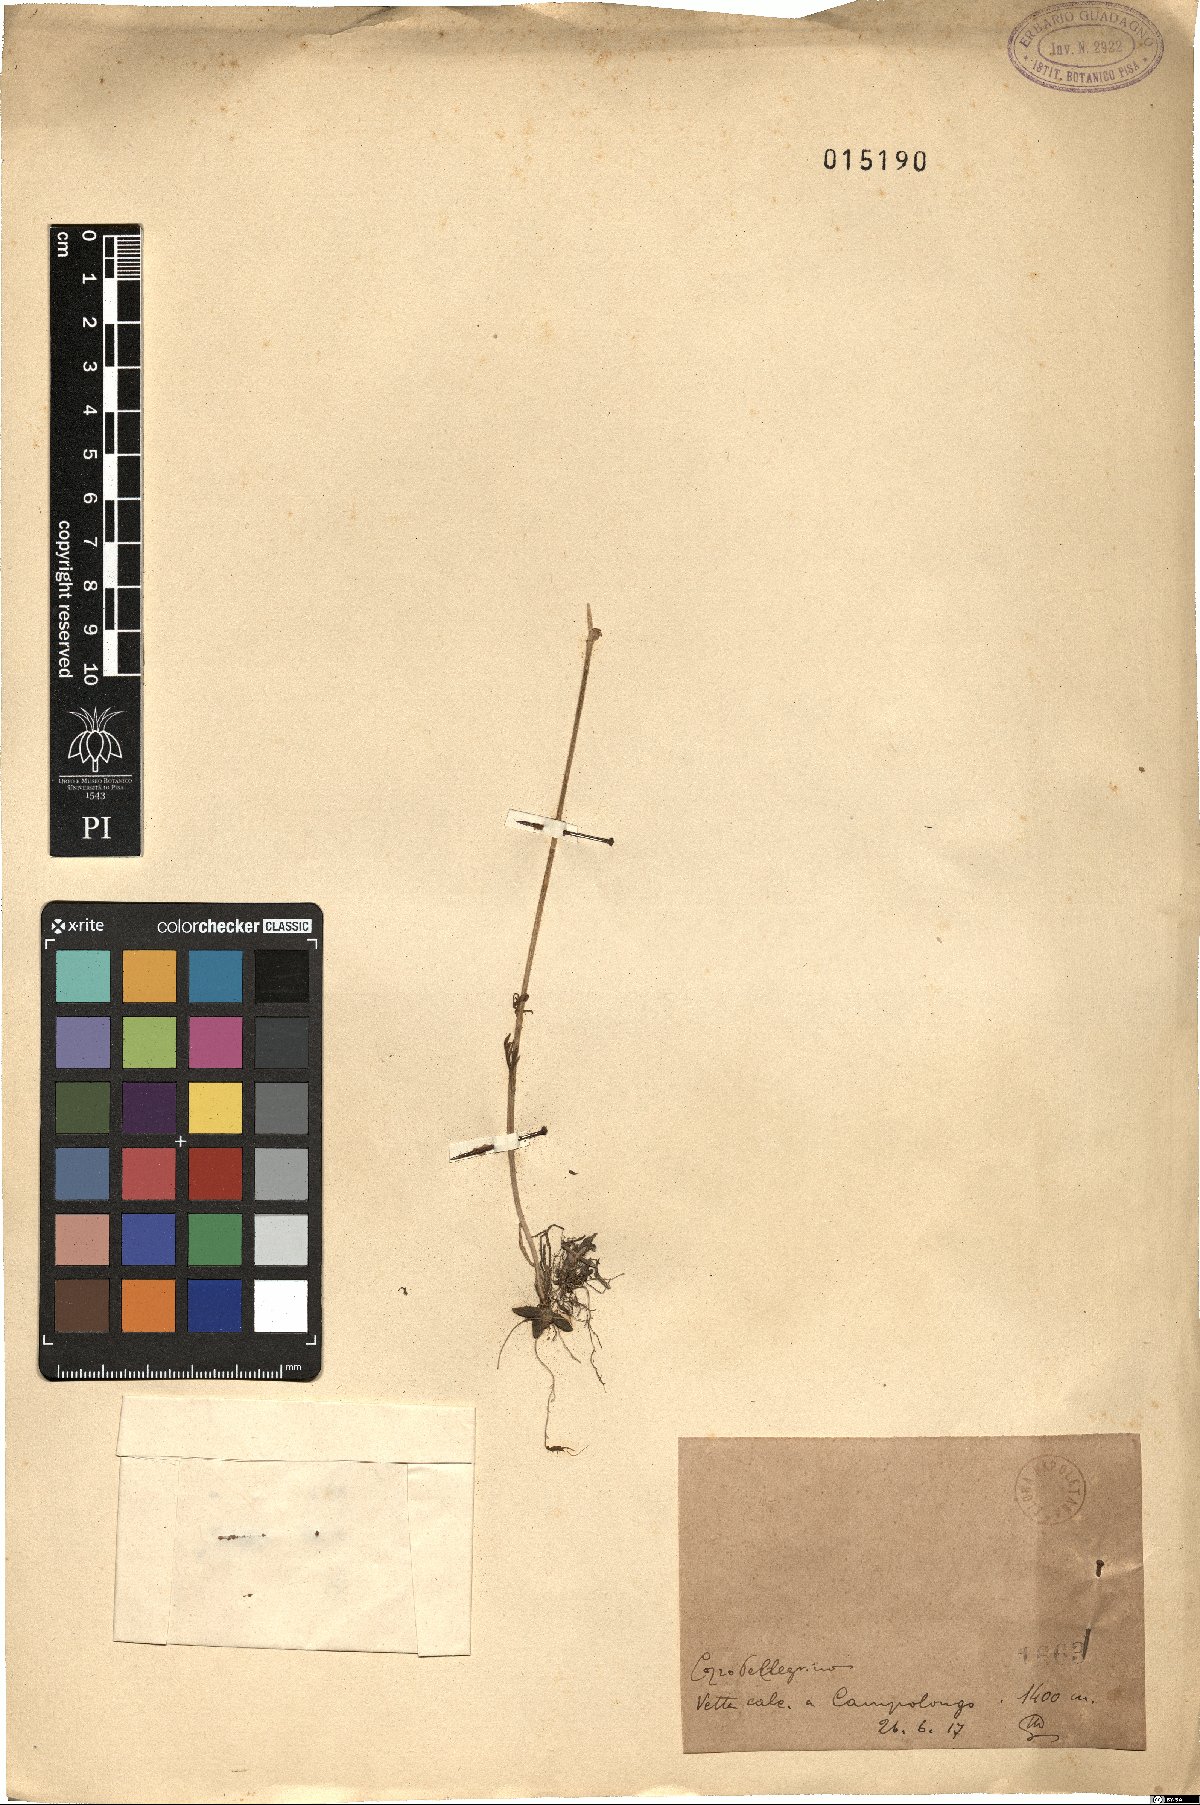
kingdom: Plantae
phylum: Tracheophyta
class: Magnoliopsida
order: Ranunculales
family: Ranunculaceae
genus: Ranunculus
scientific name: Ranunculus
